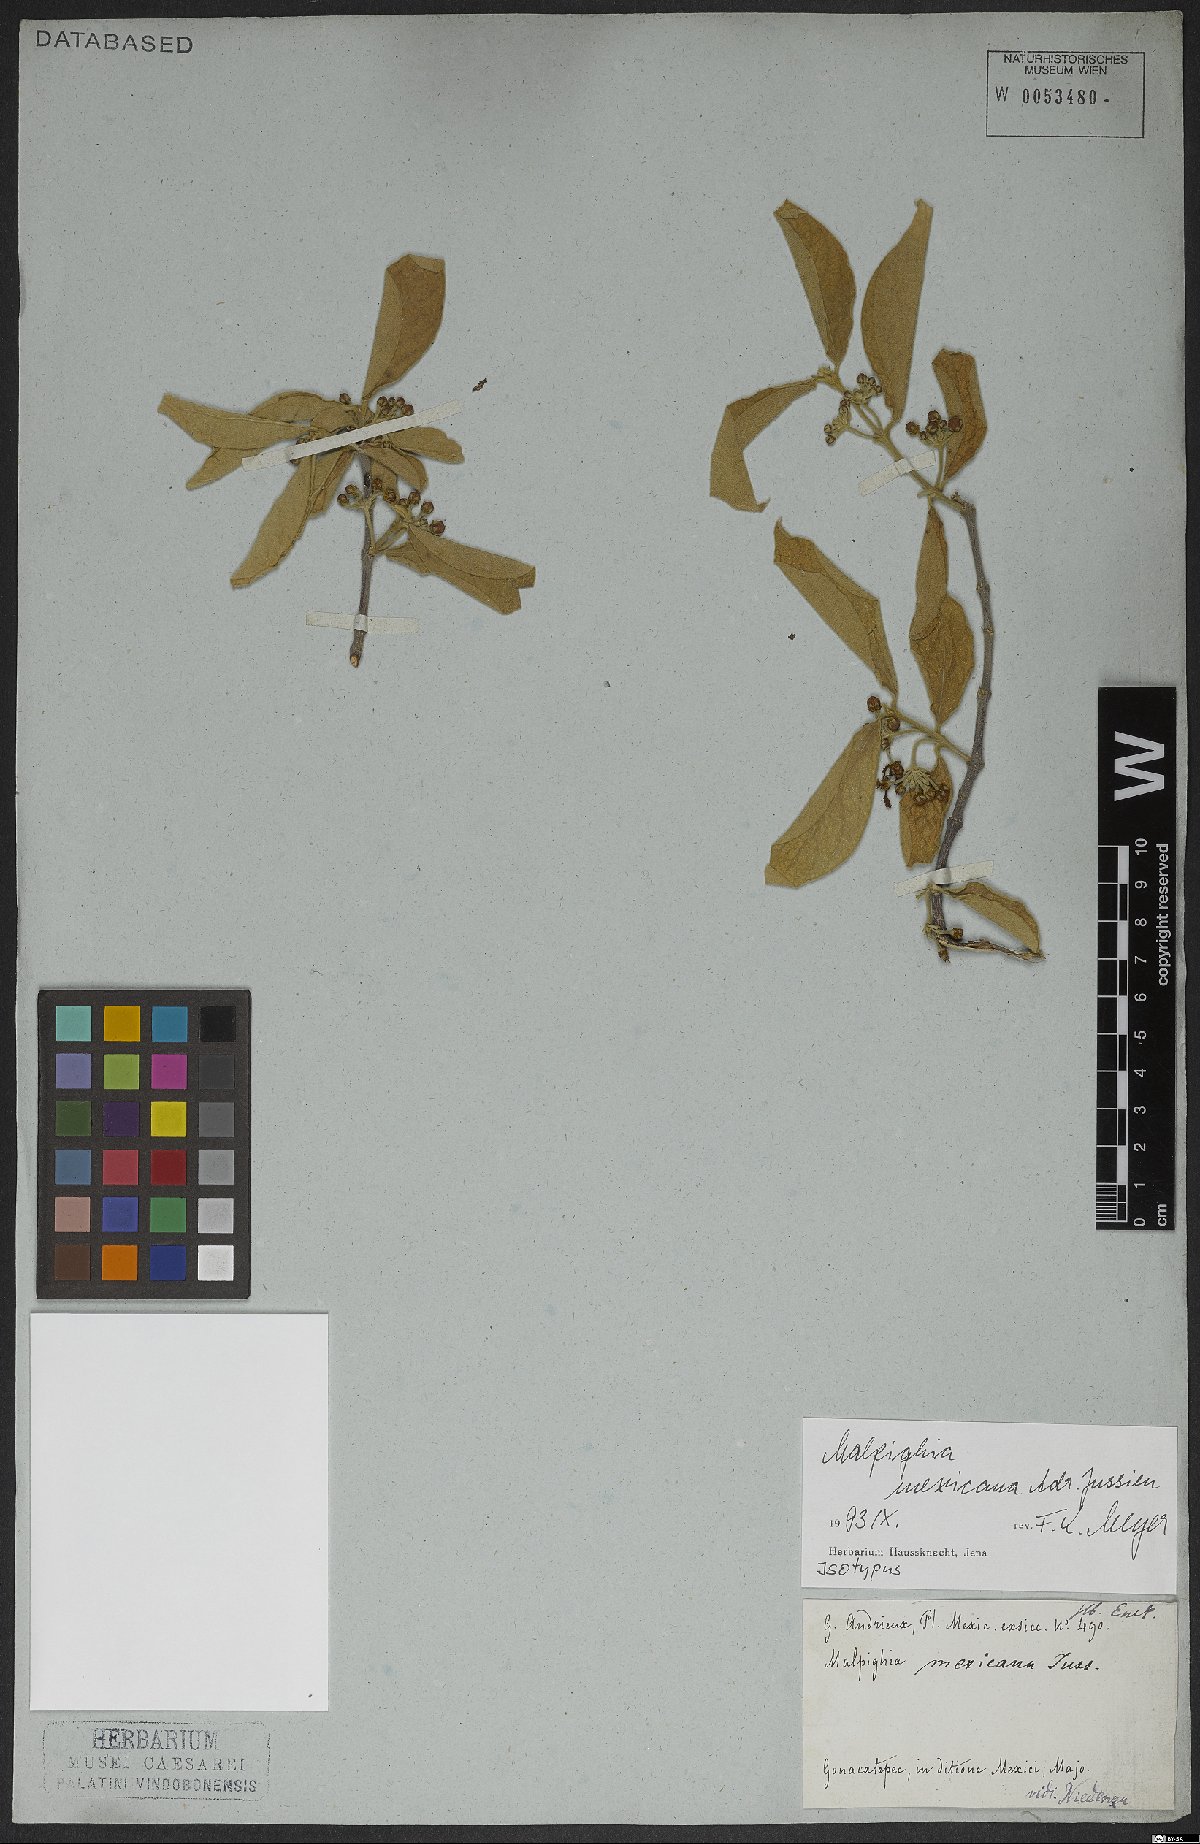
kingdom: Plantae
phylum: Tracheophyta
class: Magnoliopsida
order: Malpighiales
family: Malpighiaceae
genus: Malpighia
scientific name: Malpighia mexicana
